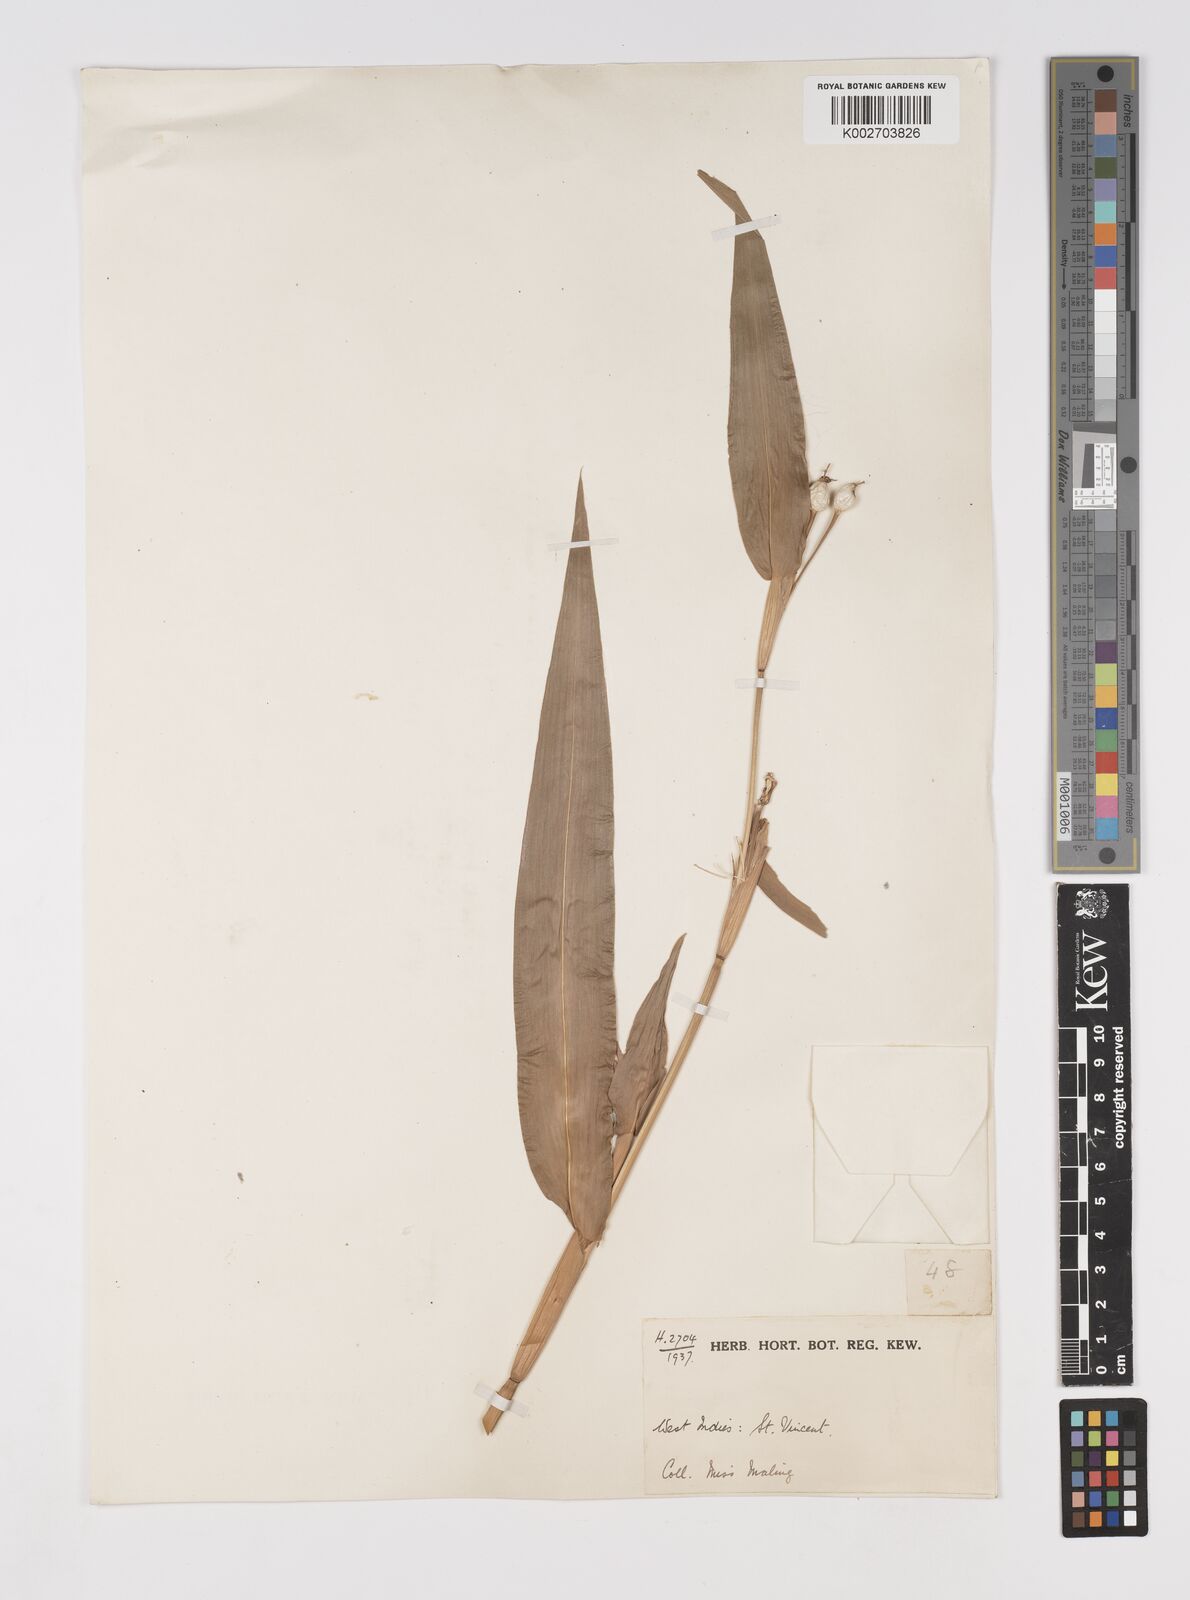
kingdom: Plantae
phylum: Tracheophyta
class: Liliopsida
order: Poales
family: Poaceae
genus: Coix
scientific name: Coix lacryma-jobi
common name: Job's tears
